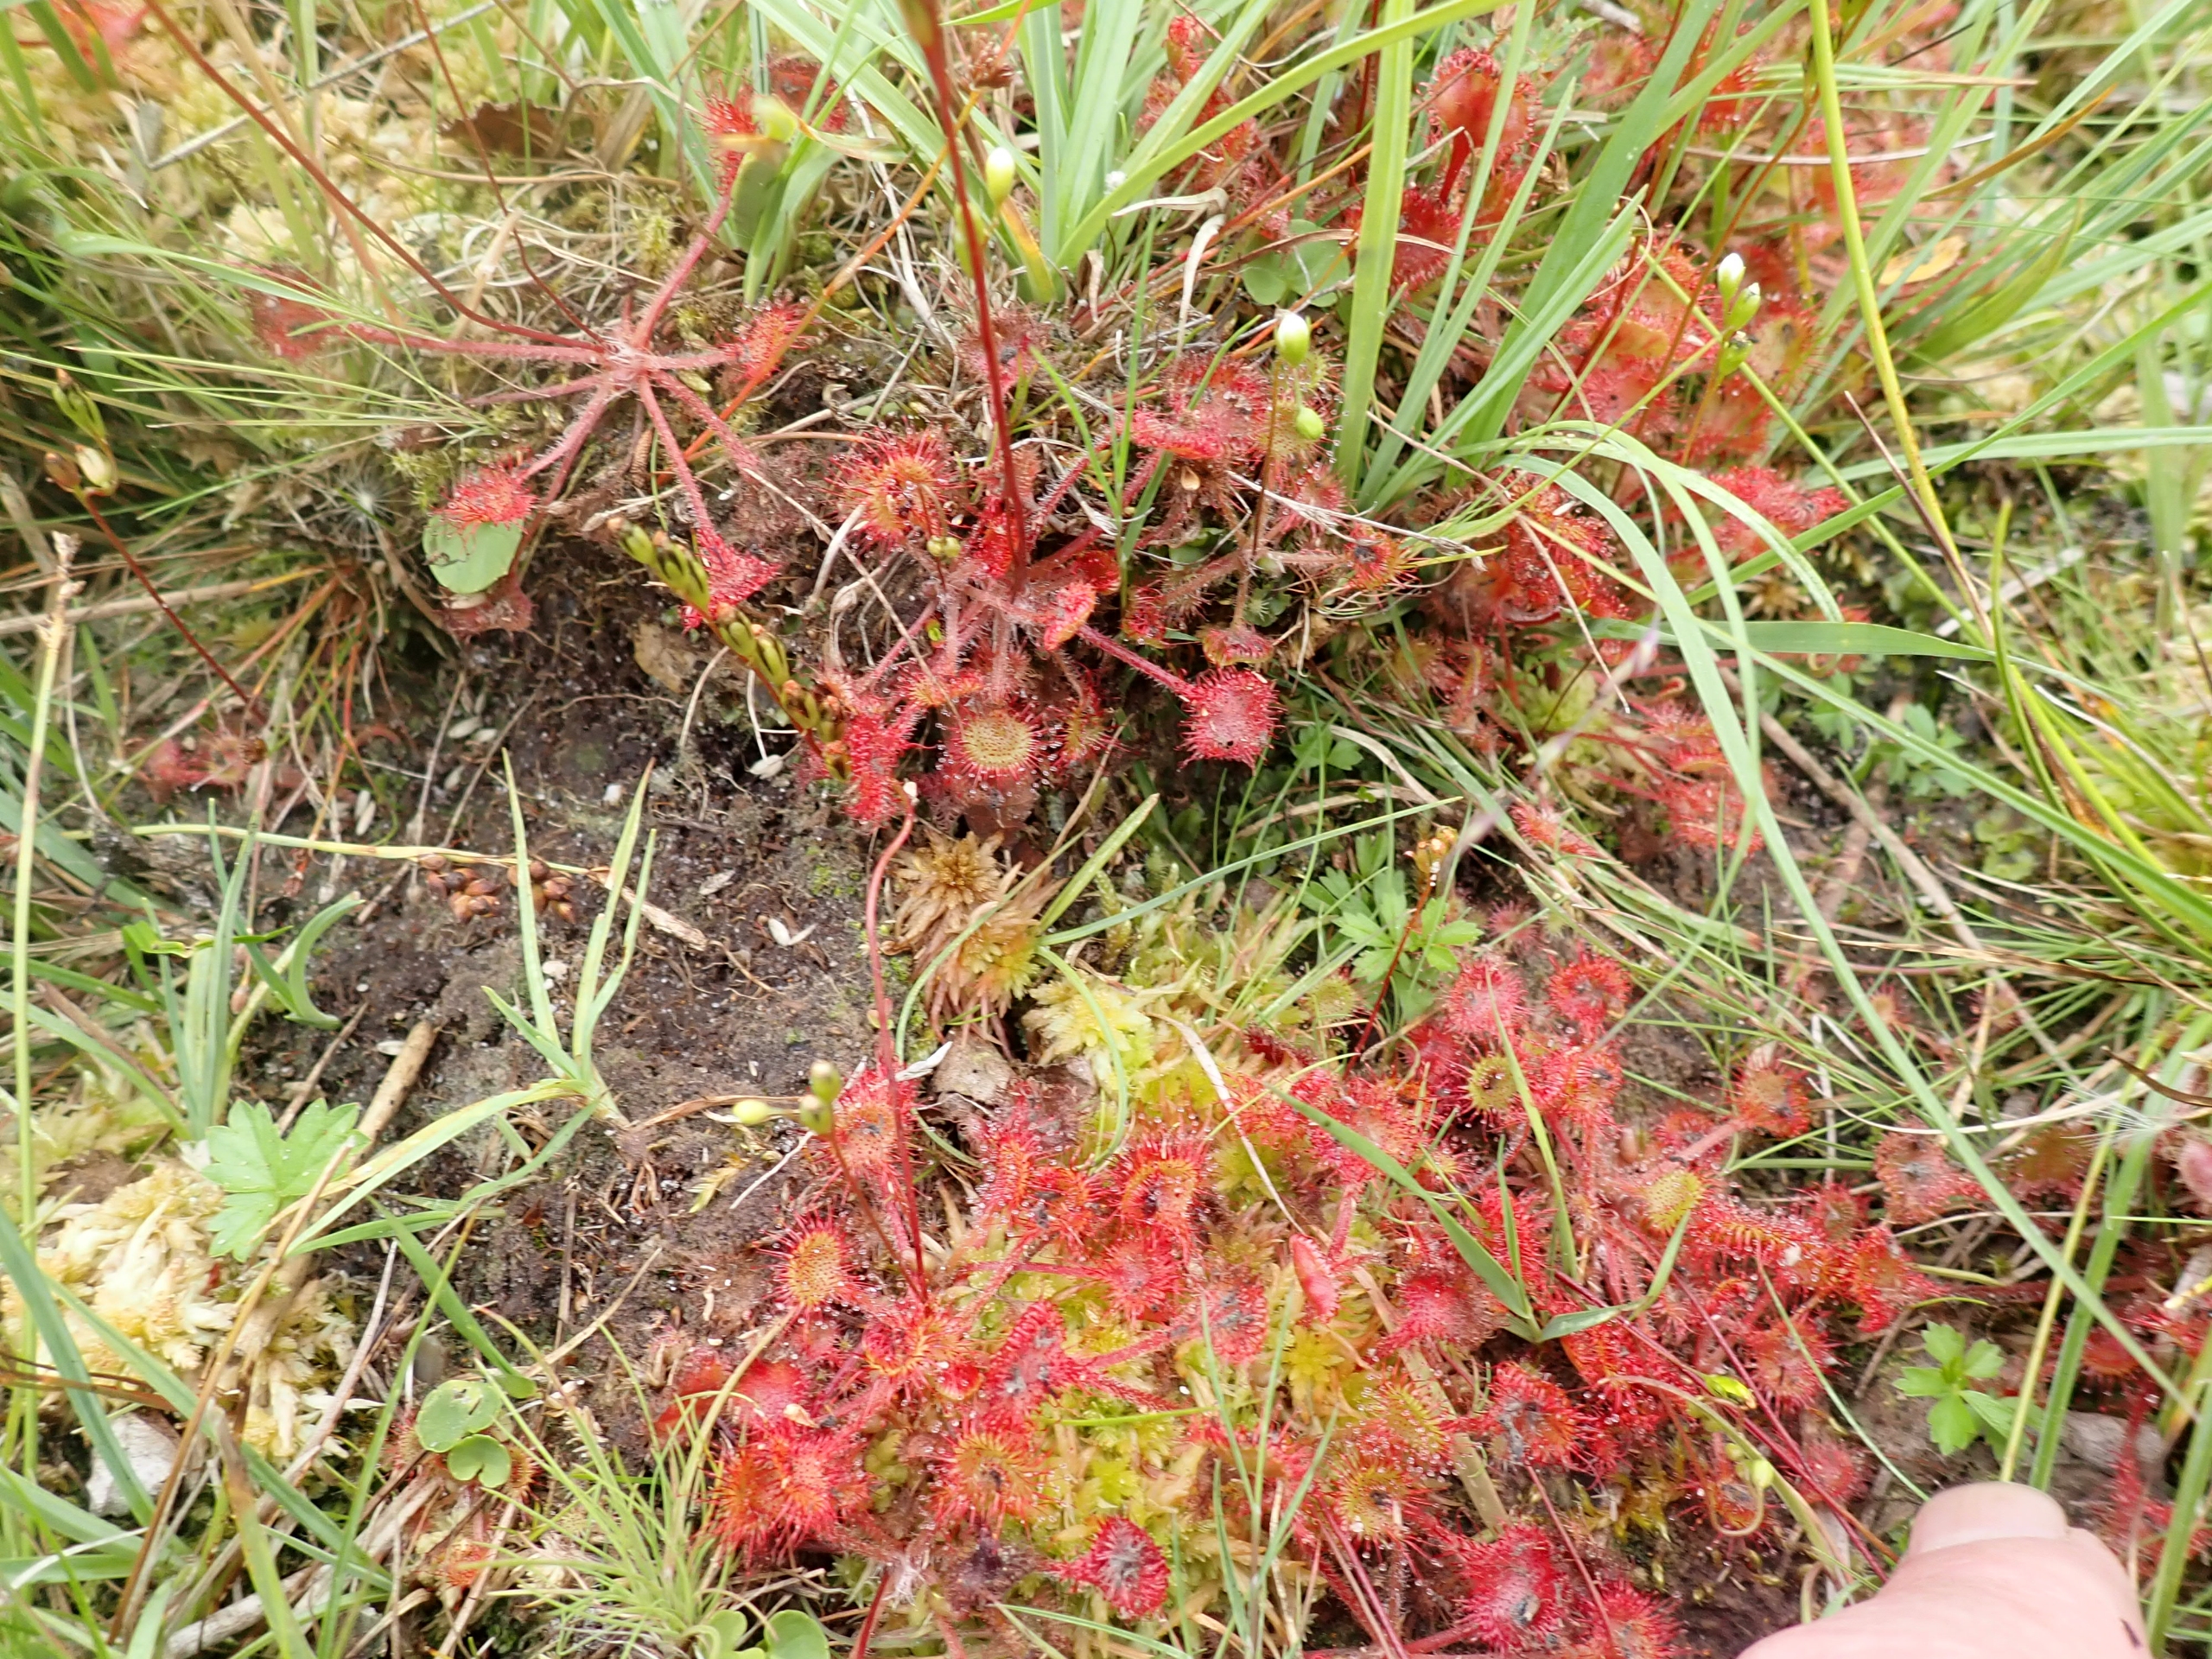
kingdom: Plantae
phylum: Tracheophyta
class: Magnoliopsida
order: Caryophyllales
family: Droseraceae
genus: Drosera
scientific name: Drosera rotundifolia
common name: Rundbladet soldug
